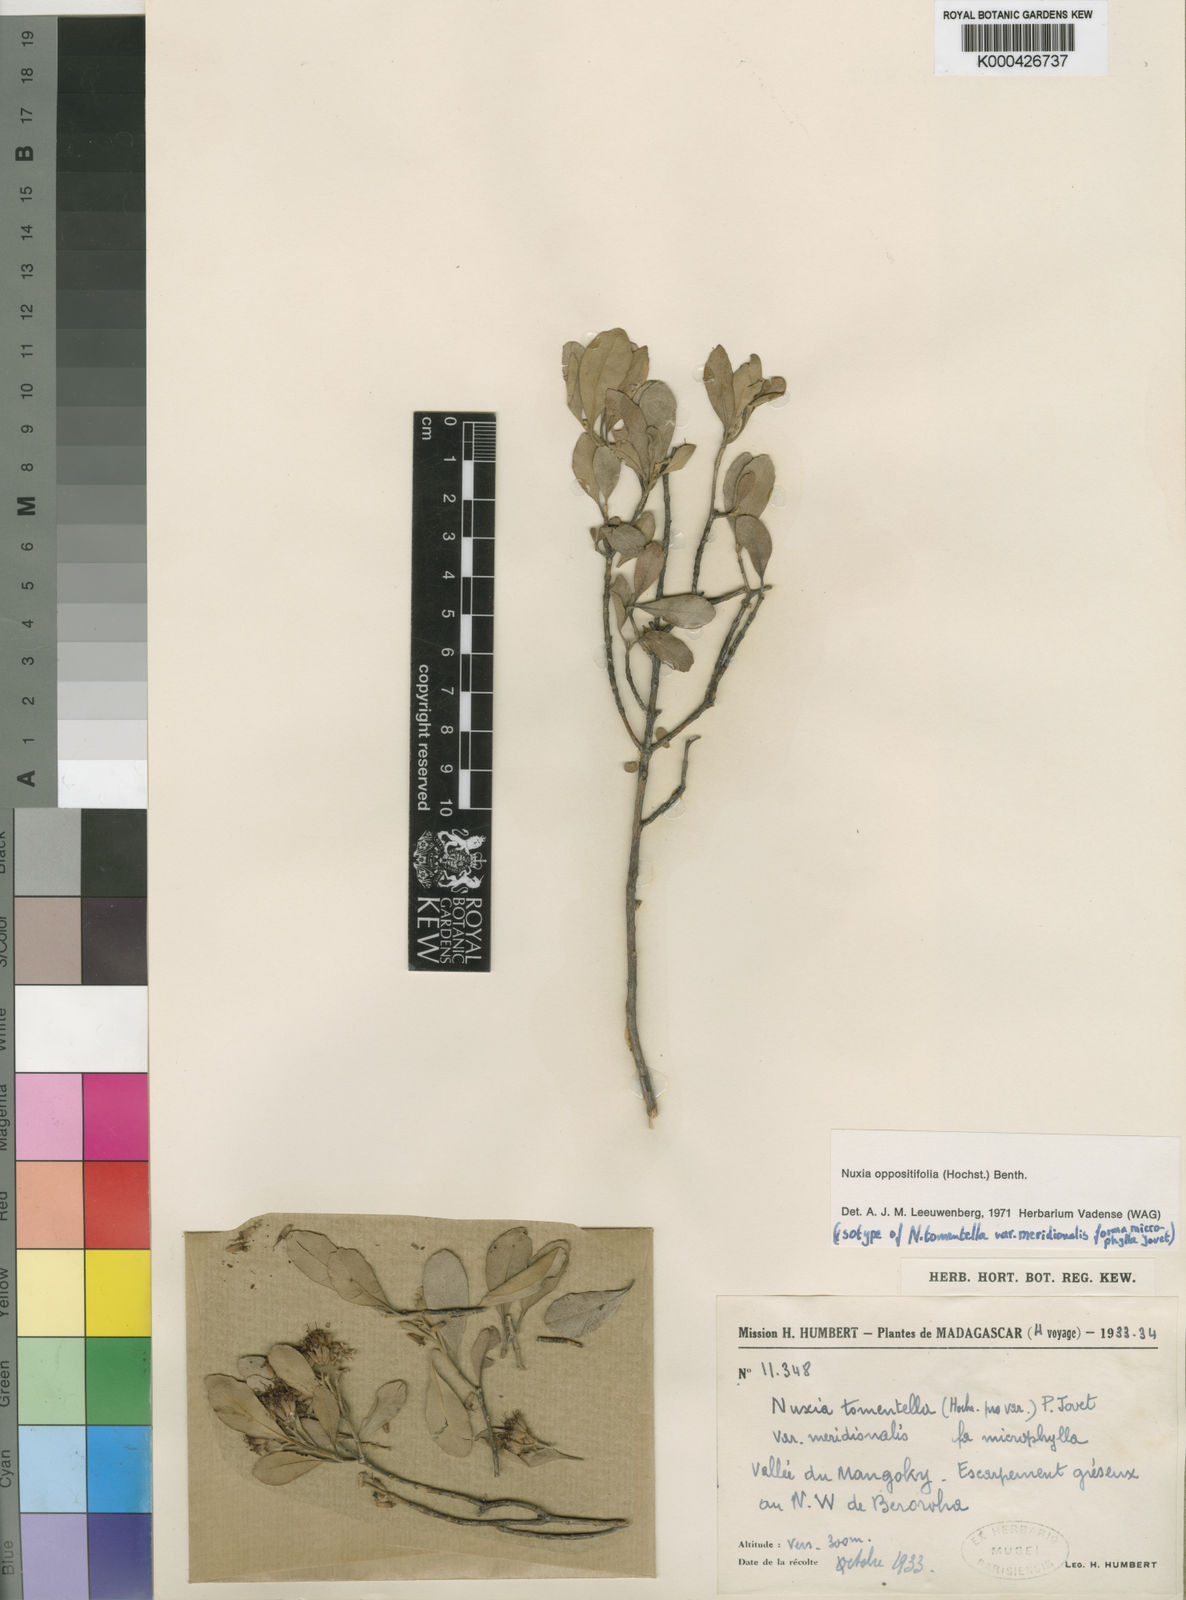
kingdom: Plantae
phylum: Tracheophyta
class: Magnoliopsida
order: Lamiales
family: Stilbaceae
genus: Nuxia
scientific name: Nuxia oppositifolia
